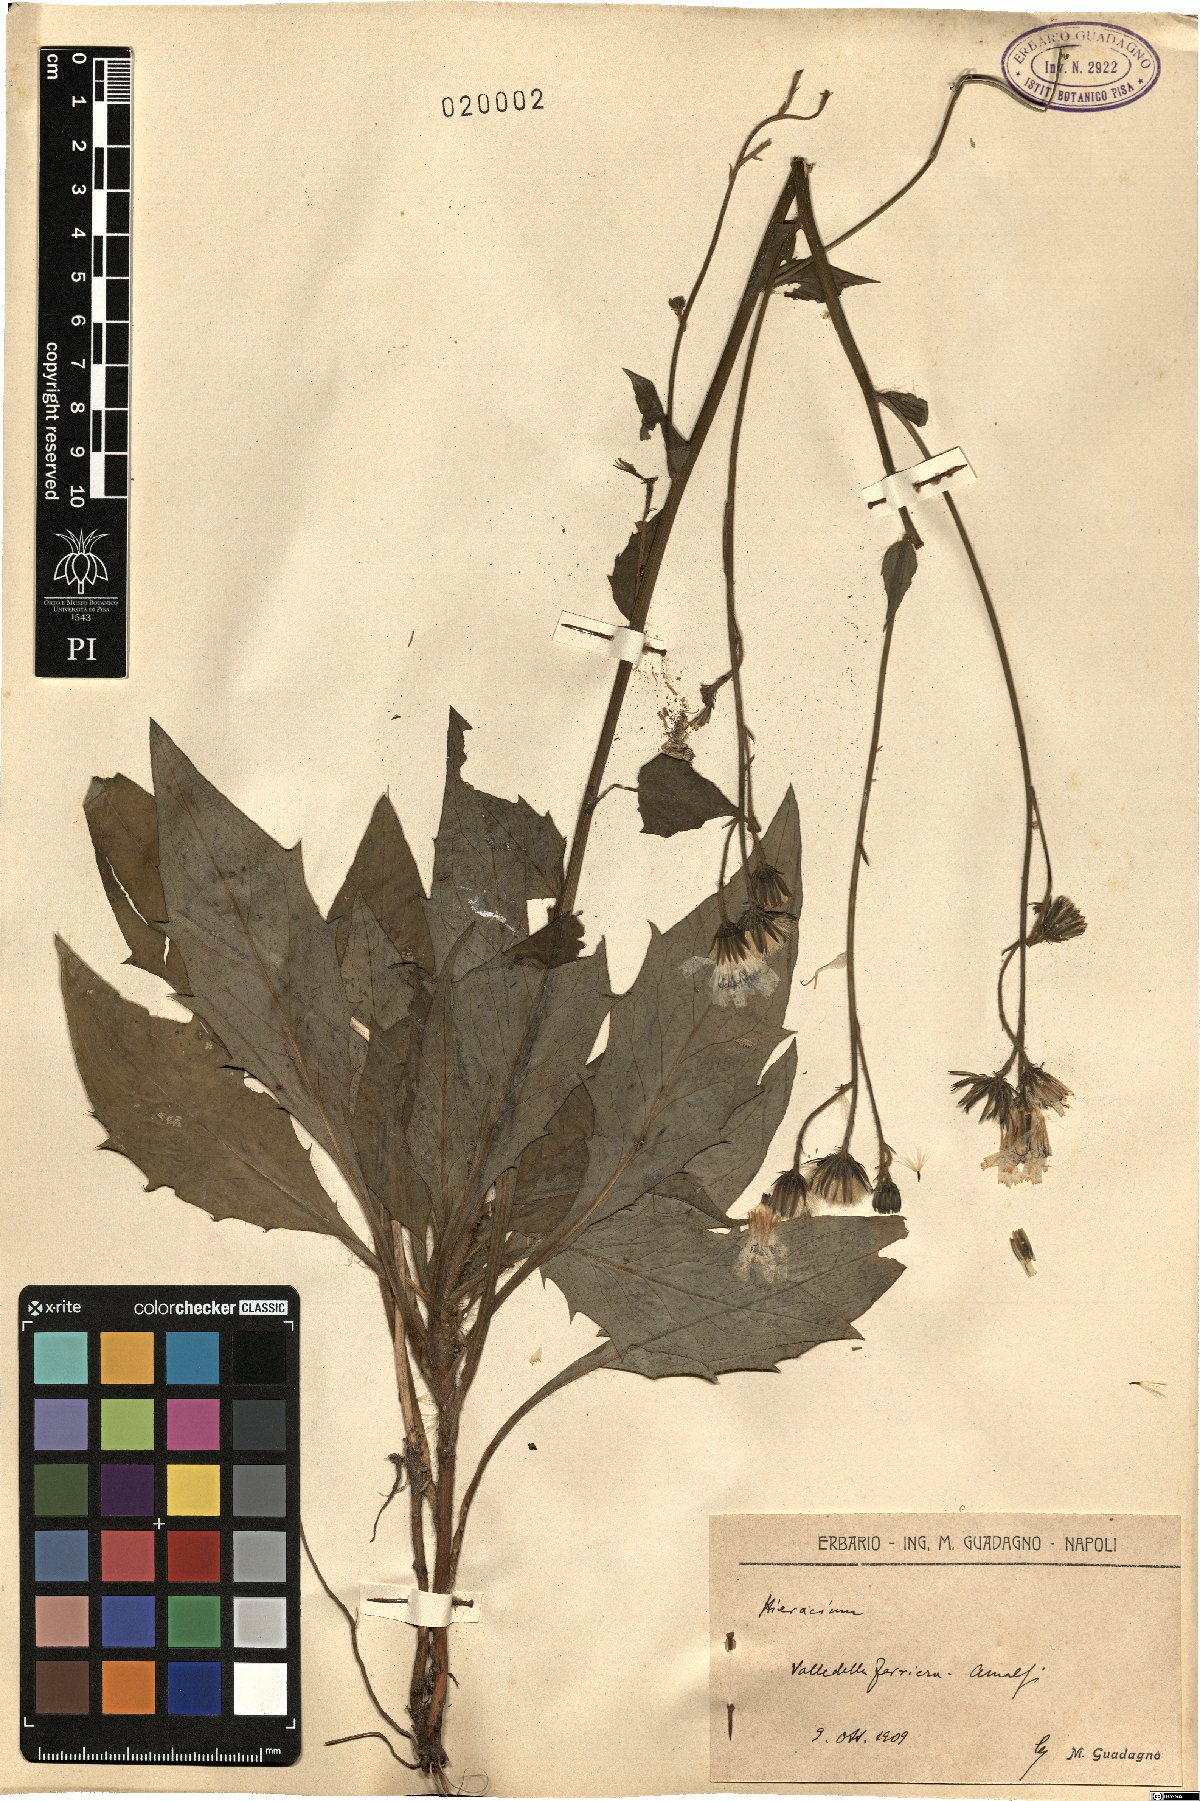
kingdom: Plantae
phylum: Tracheophyta
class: Magnoliopsida
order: Asterales
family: Asteraceae
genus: Hieracium
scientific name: Hieracium
